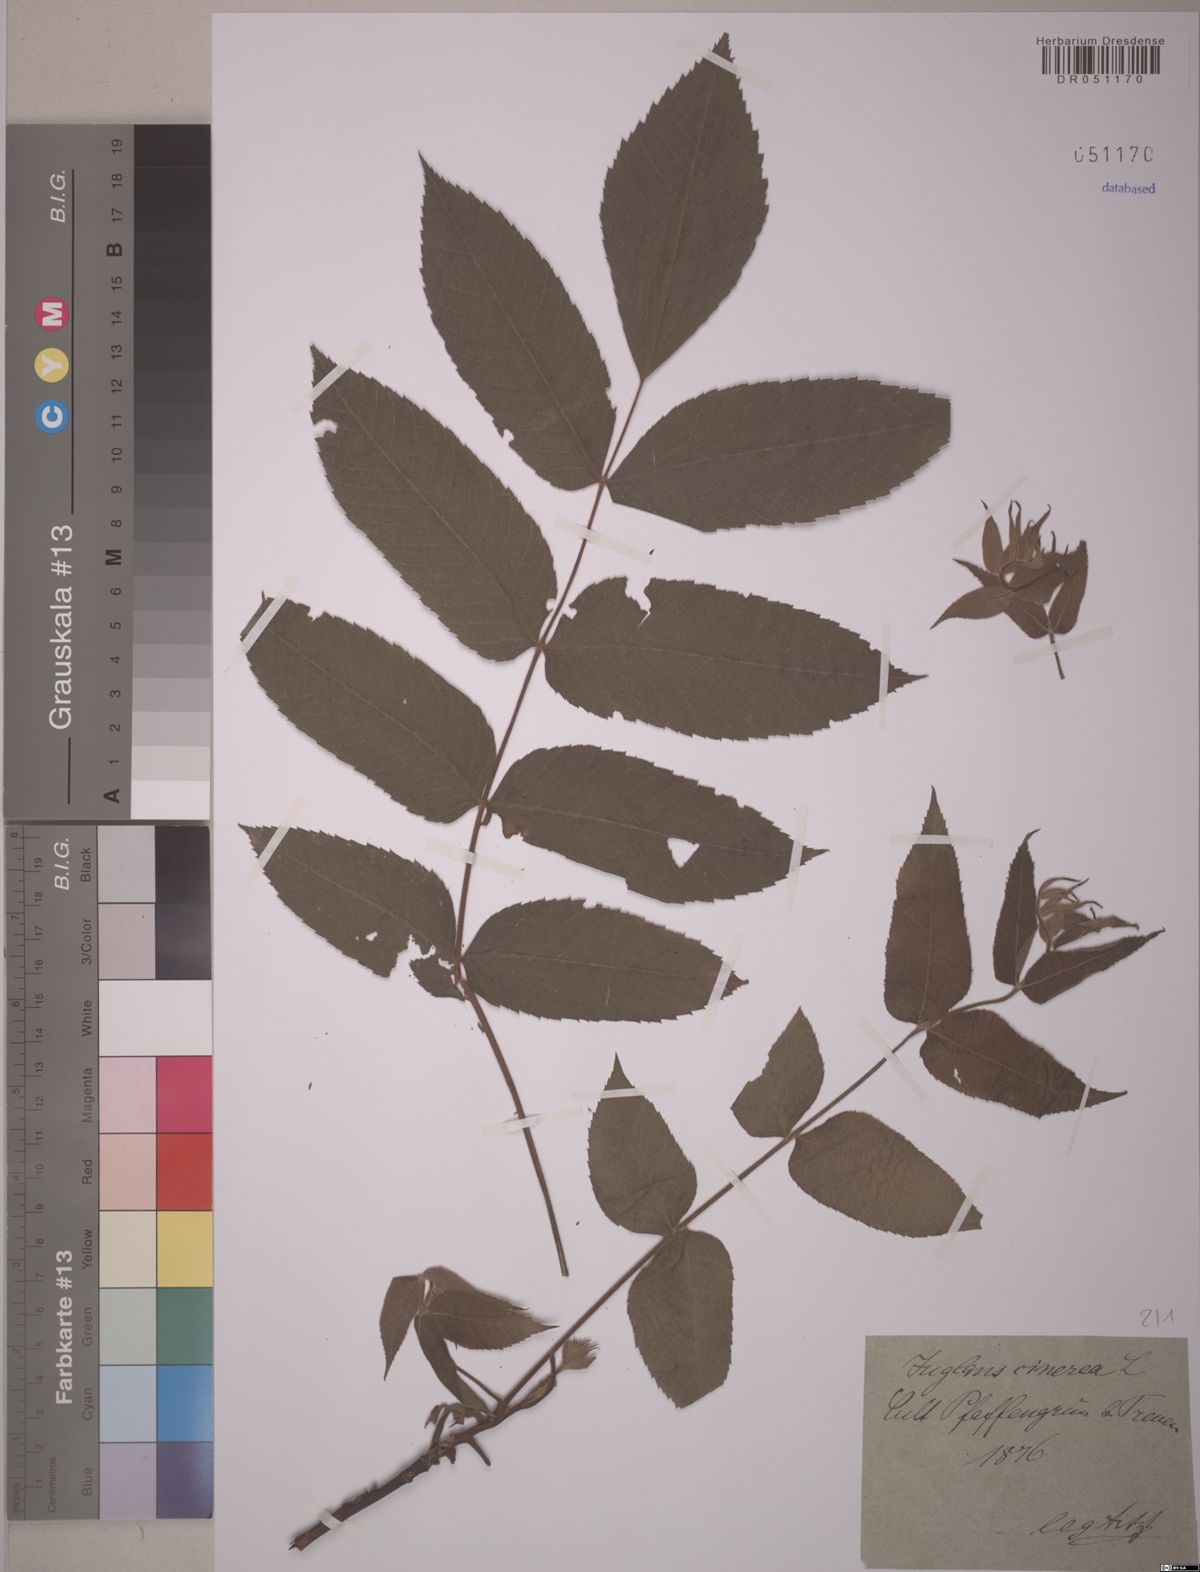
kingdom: Plantae
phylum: Tracheophyta
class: Magnoliopsida
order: Fagales
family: Juglandaceae
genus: Juglans
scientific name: Juglans cinerea
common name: Butternut
